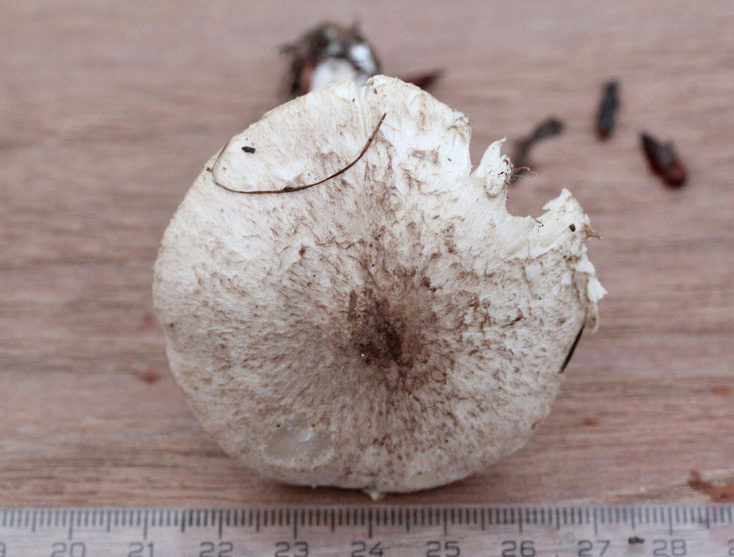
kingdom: Fungi
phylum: Basidiomycota
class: Agaricomycetes
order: Agaricales
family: Tricholomataceae
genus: Tricholoma
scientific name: Tricholoma scalpturatum
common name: gulplettet ridderhat
